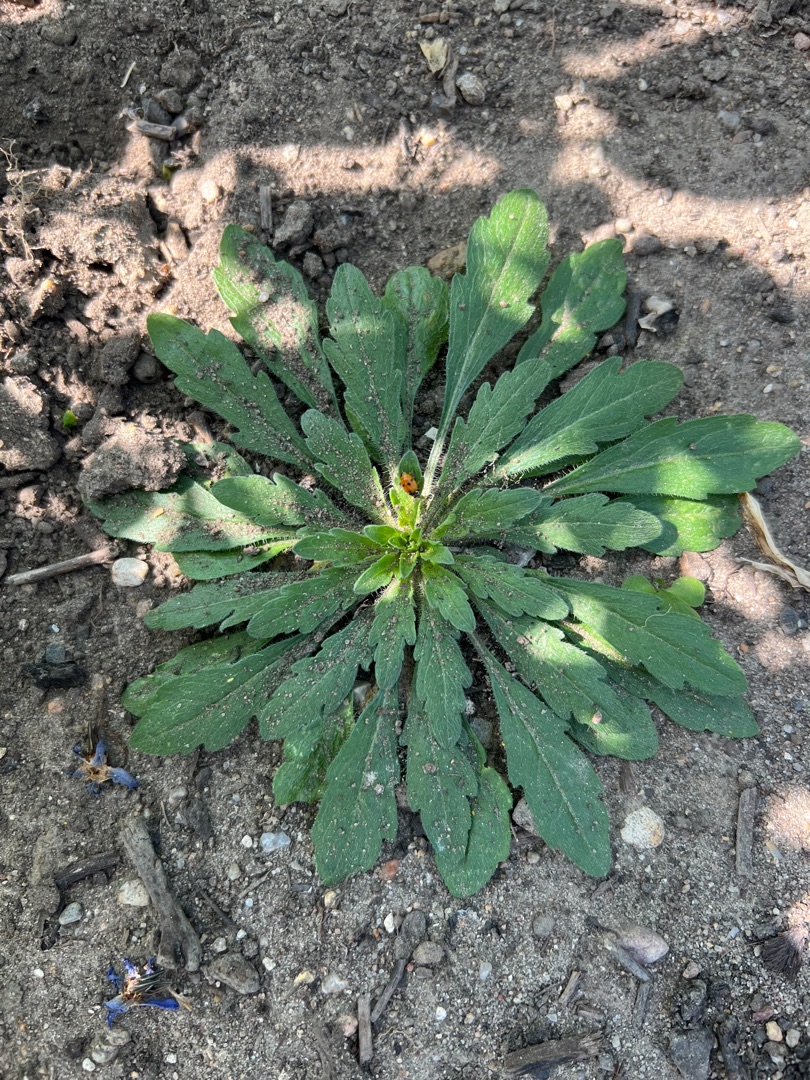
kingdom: Plantae
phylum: Tracheophyta
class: Magnoliopsida
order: Asterales
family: Asteraceae
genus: Erigeron
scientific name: Erigeron canadensis
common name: Kanadisk bakkestjerne
